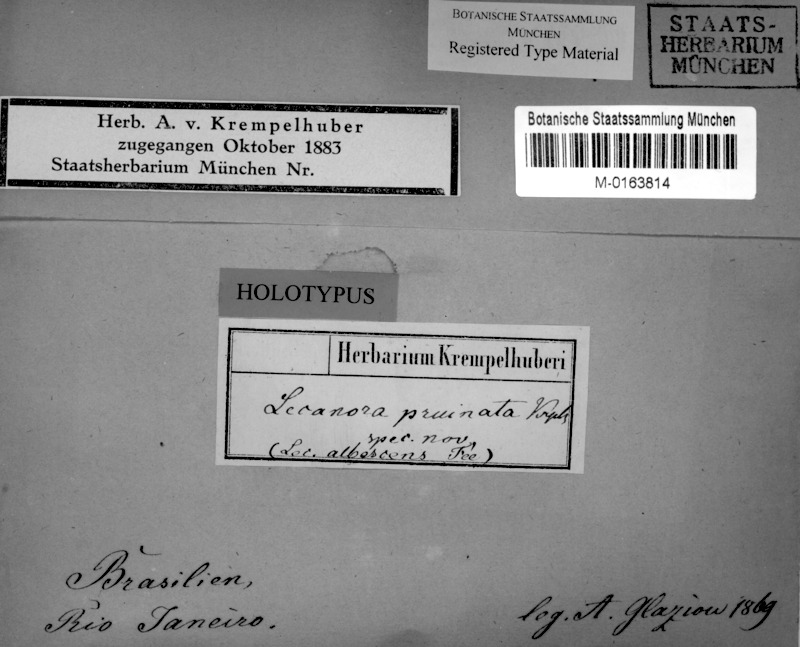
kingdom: Fungi
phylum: Ascomycota
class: Lecanoromycetes
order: Lecanorales
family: Lecanoraceae
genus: Lecanora
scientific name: Lecanora
